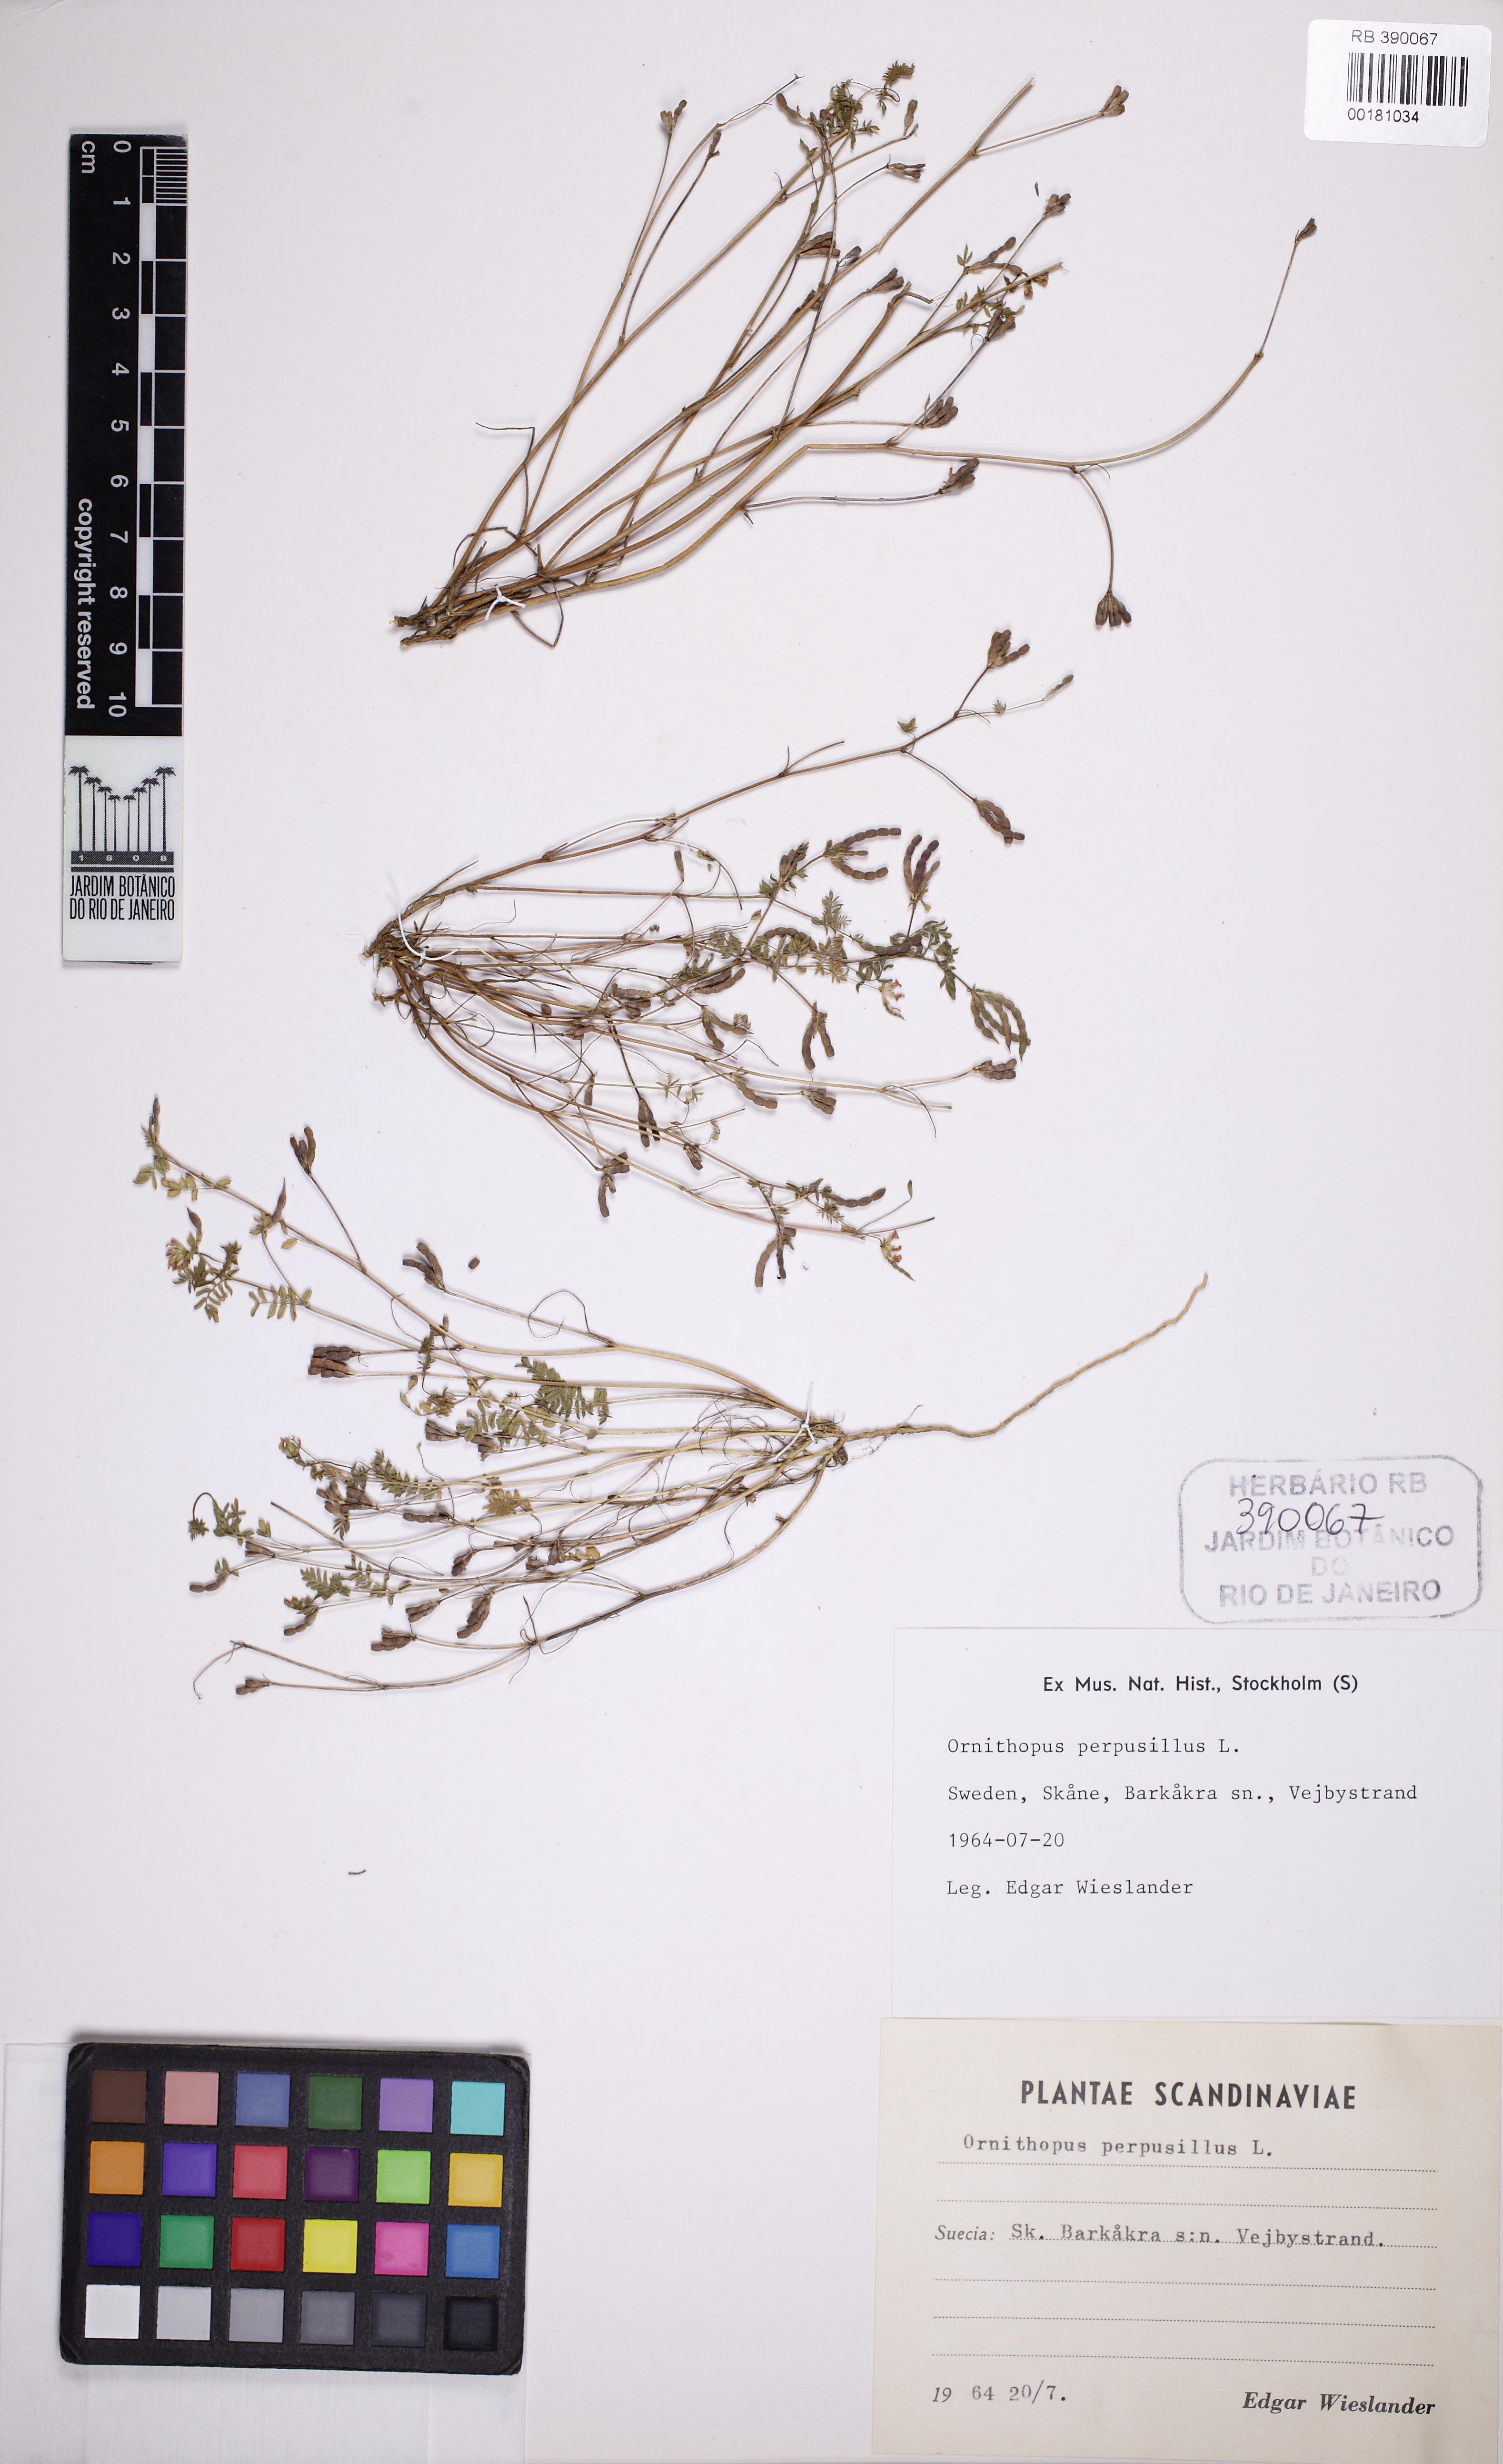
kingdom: Plantae
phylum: Tracheophyta
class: Magnoliopsida
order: Fabales
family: Fabaceae
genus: Ornithopus
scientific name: Ornithopus perpusillus
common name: Bird's-foot
